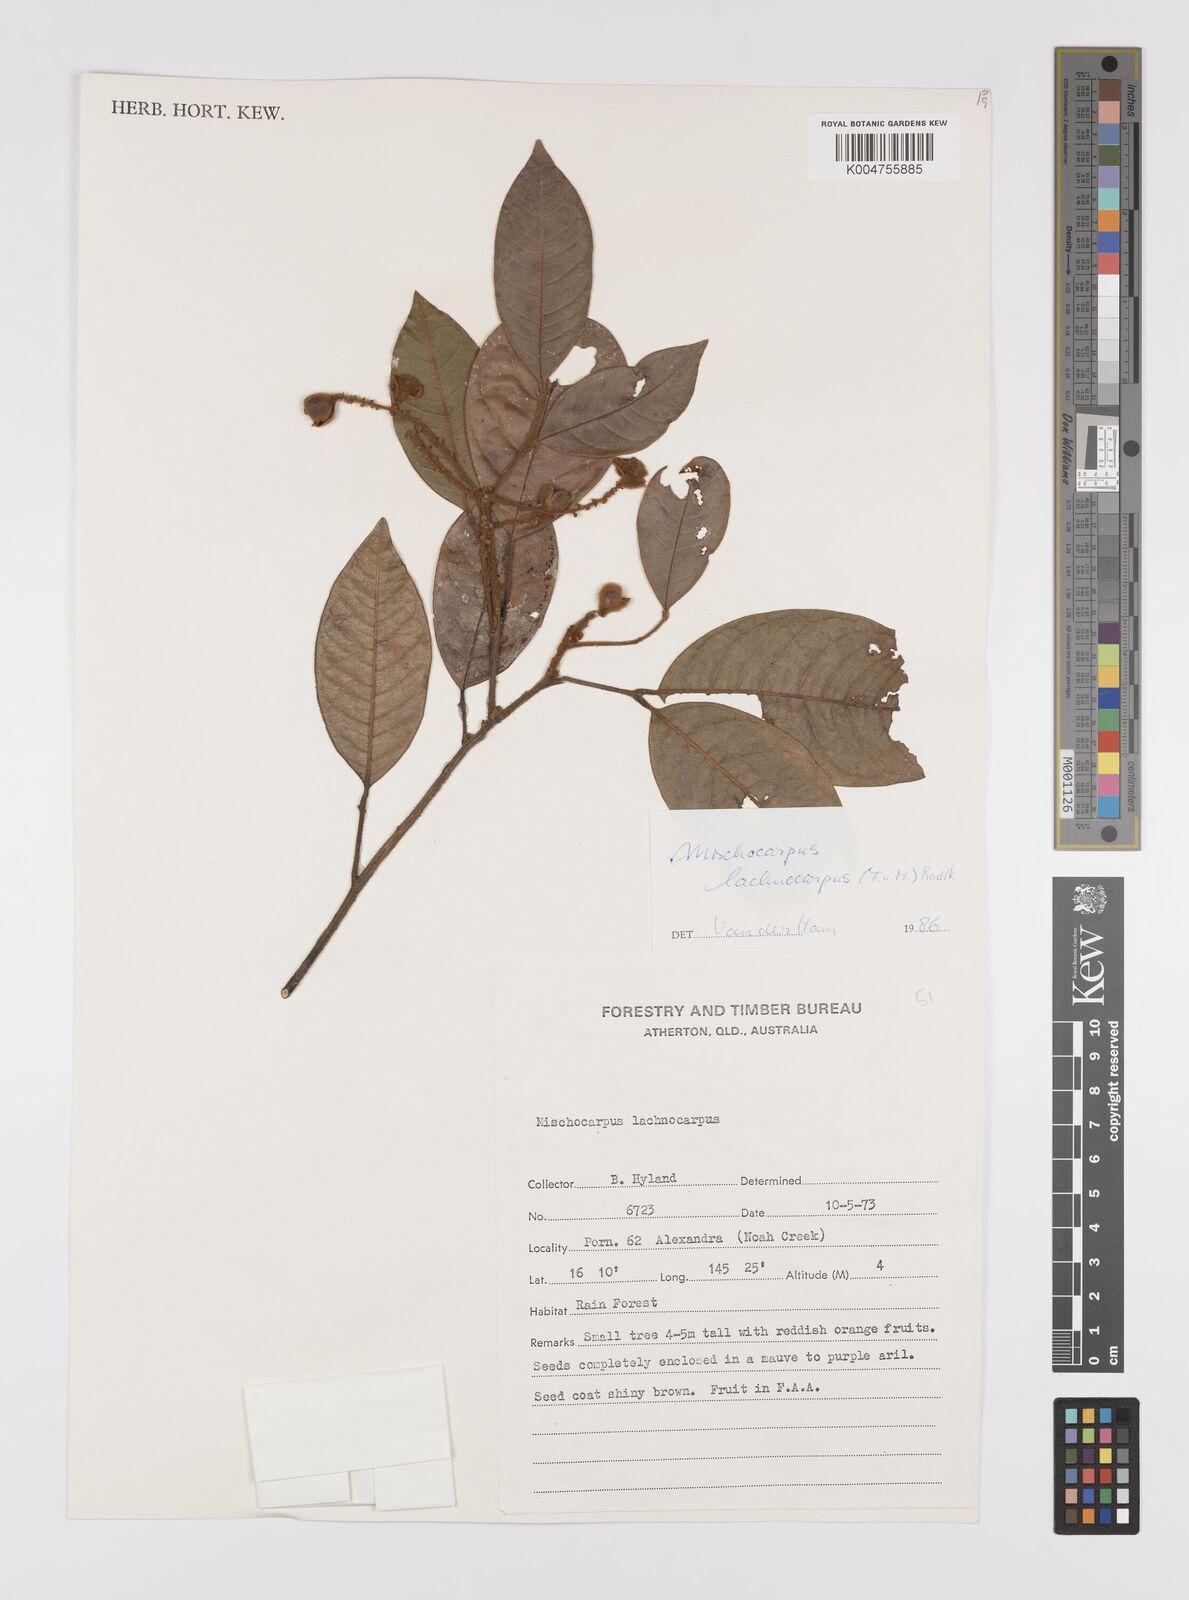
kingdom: Plantae
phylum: Tracheophyta
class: Magnoliopsida
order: Sapindales
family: Sapindaceae
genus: Mischocarpus
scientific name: Mischocarpus lachnocarpus
